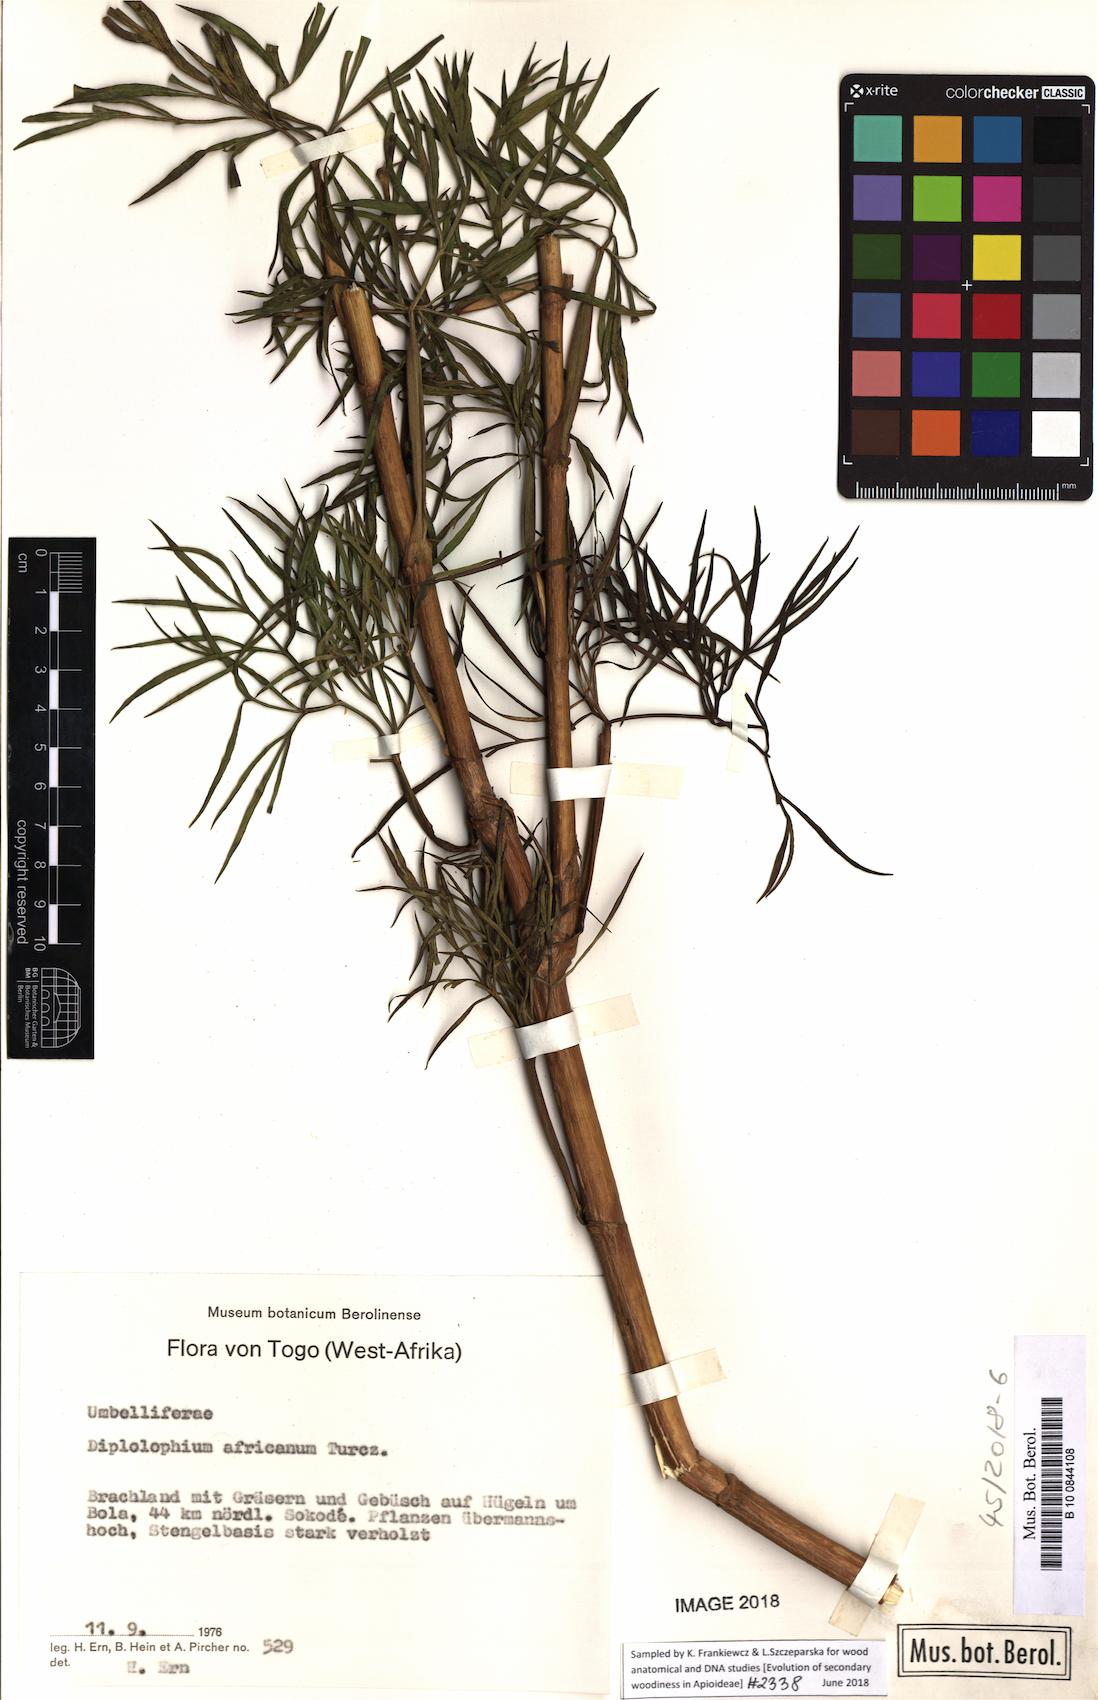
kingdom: Plantae
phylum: Tracheophyta
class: Magnoliopsida
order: Apiales
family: Apiaceae
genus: Diplolophium
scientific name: Diplolophium africanum
